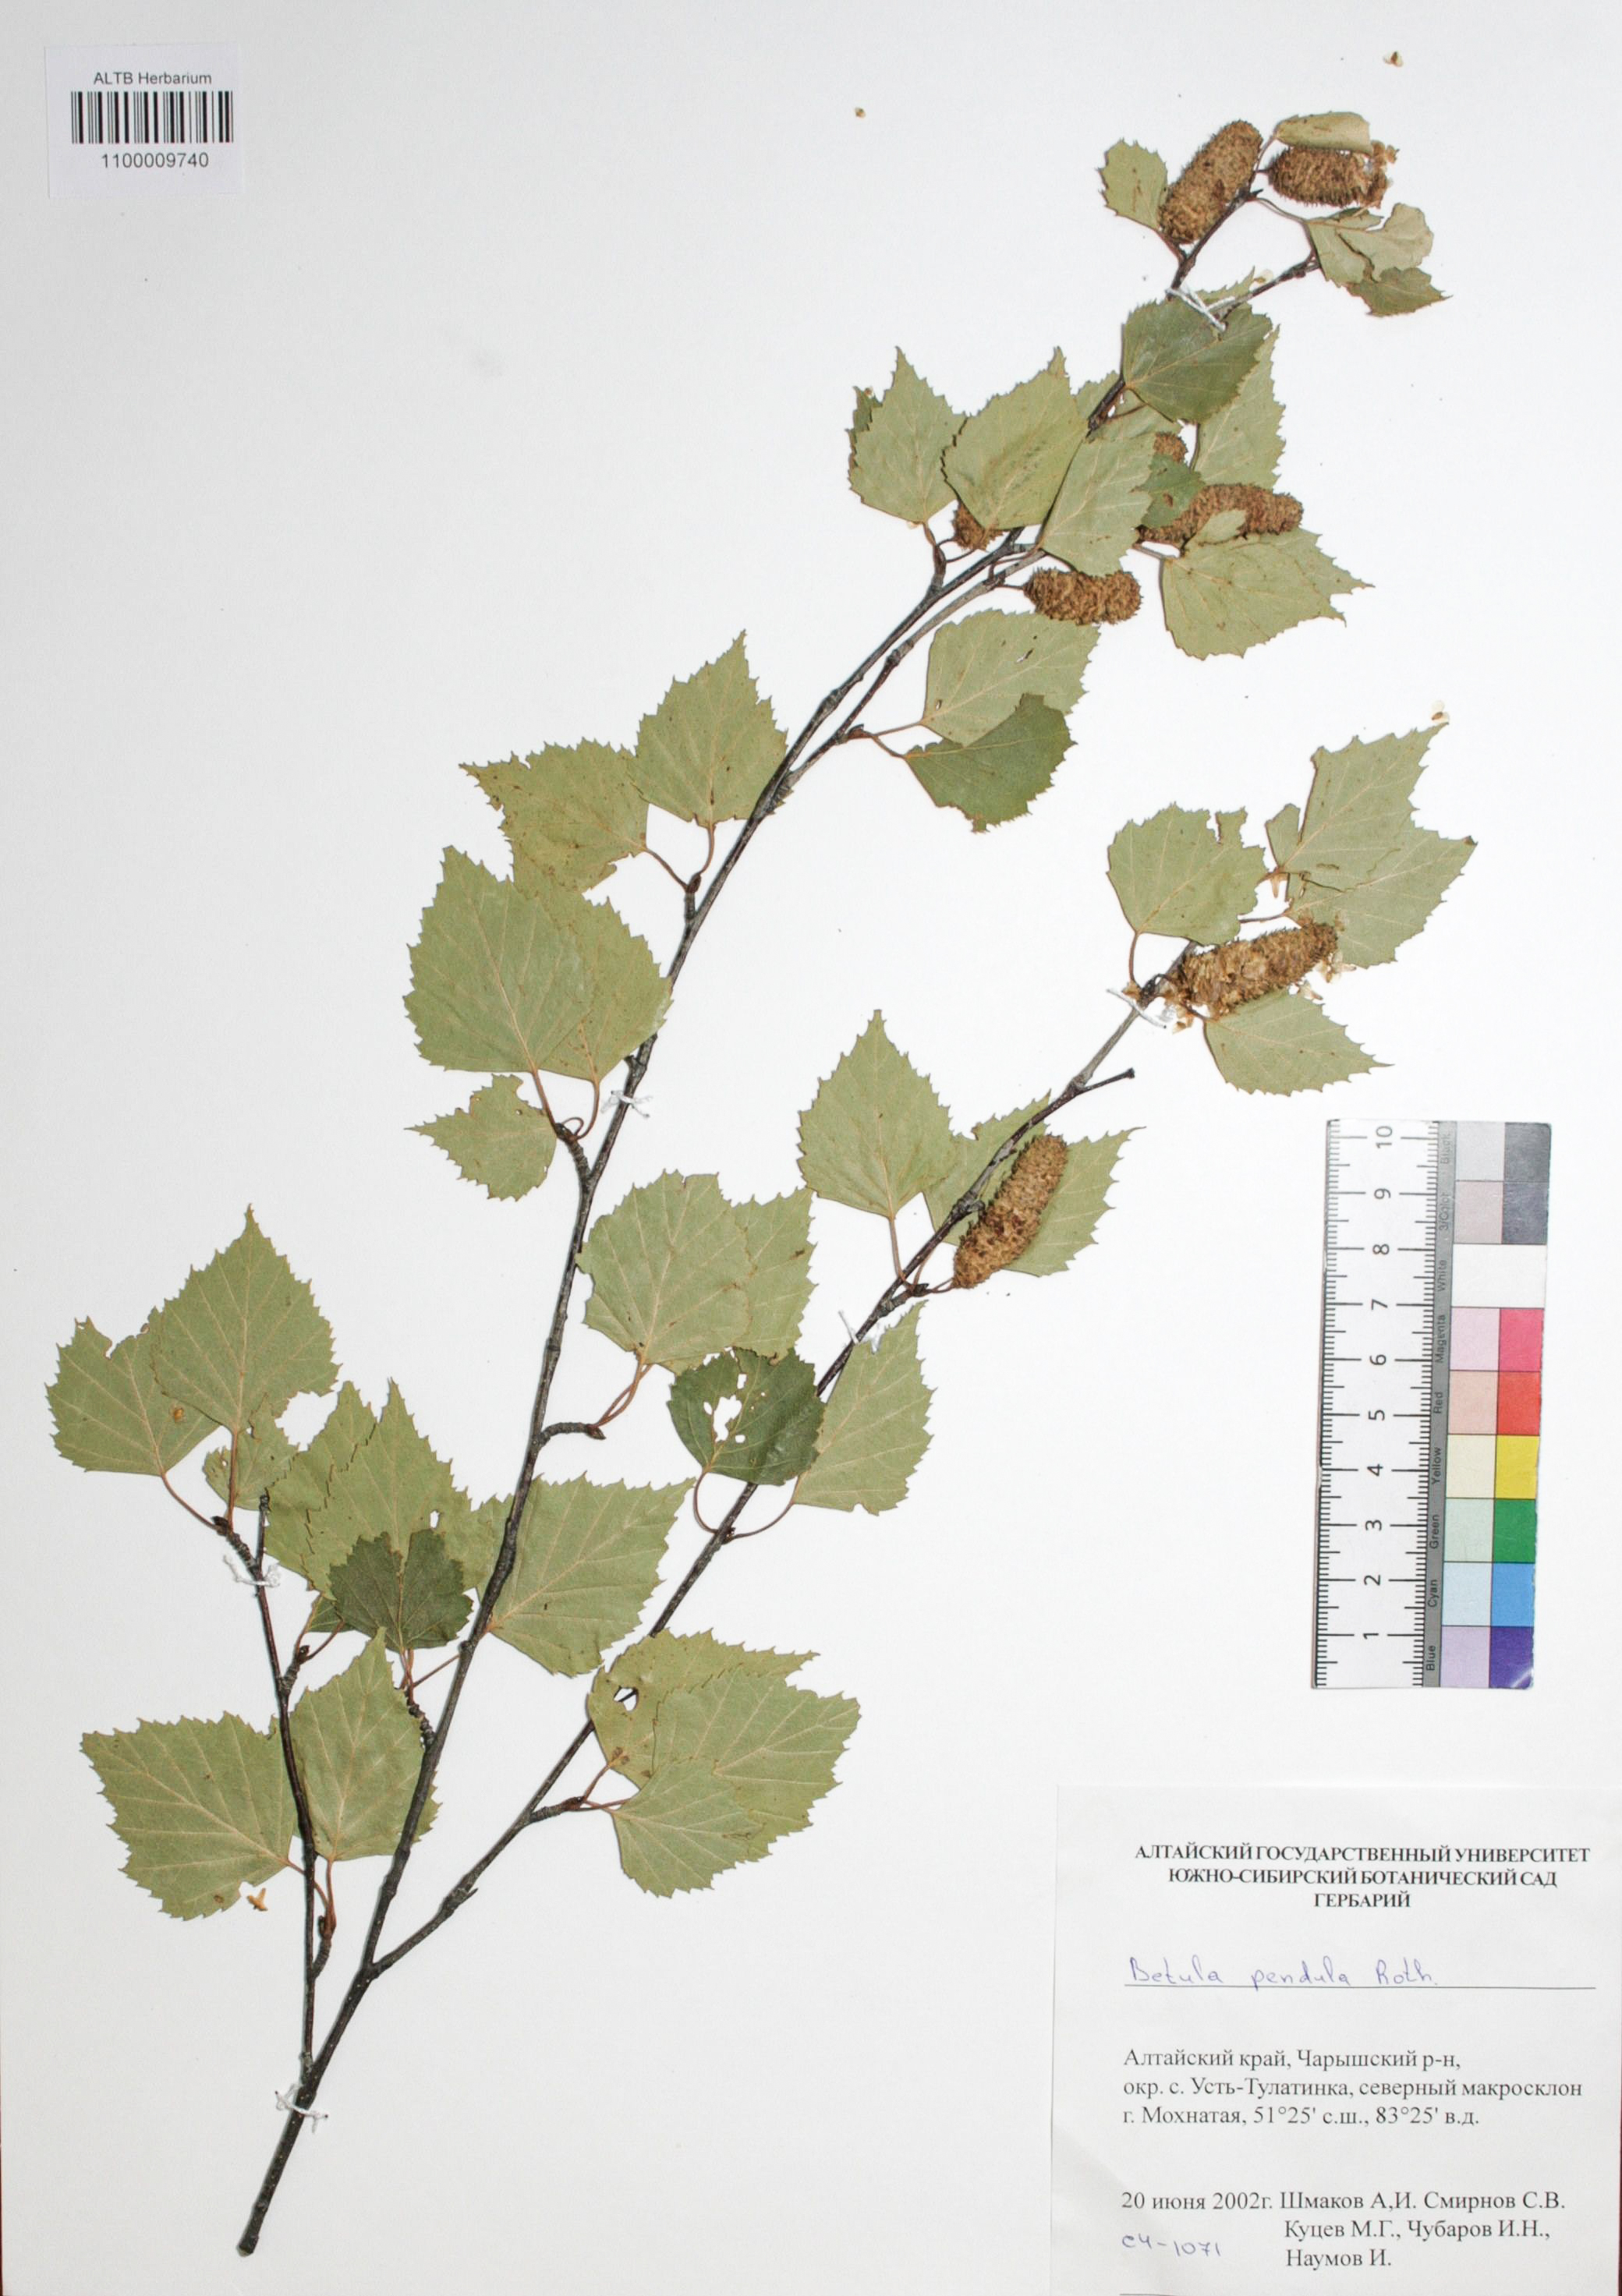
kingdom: Plantae
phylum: Tracheophyta
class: Magnoliopsida
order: Fagales
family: Betulaceae
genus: Betula
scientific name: Betula pendula
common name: Silver birch
